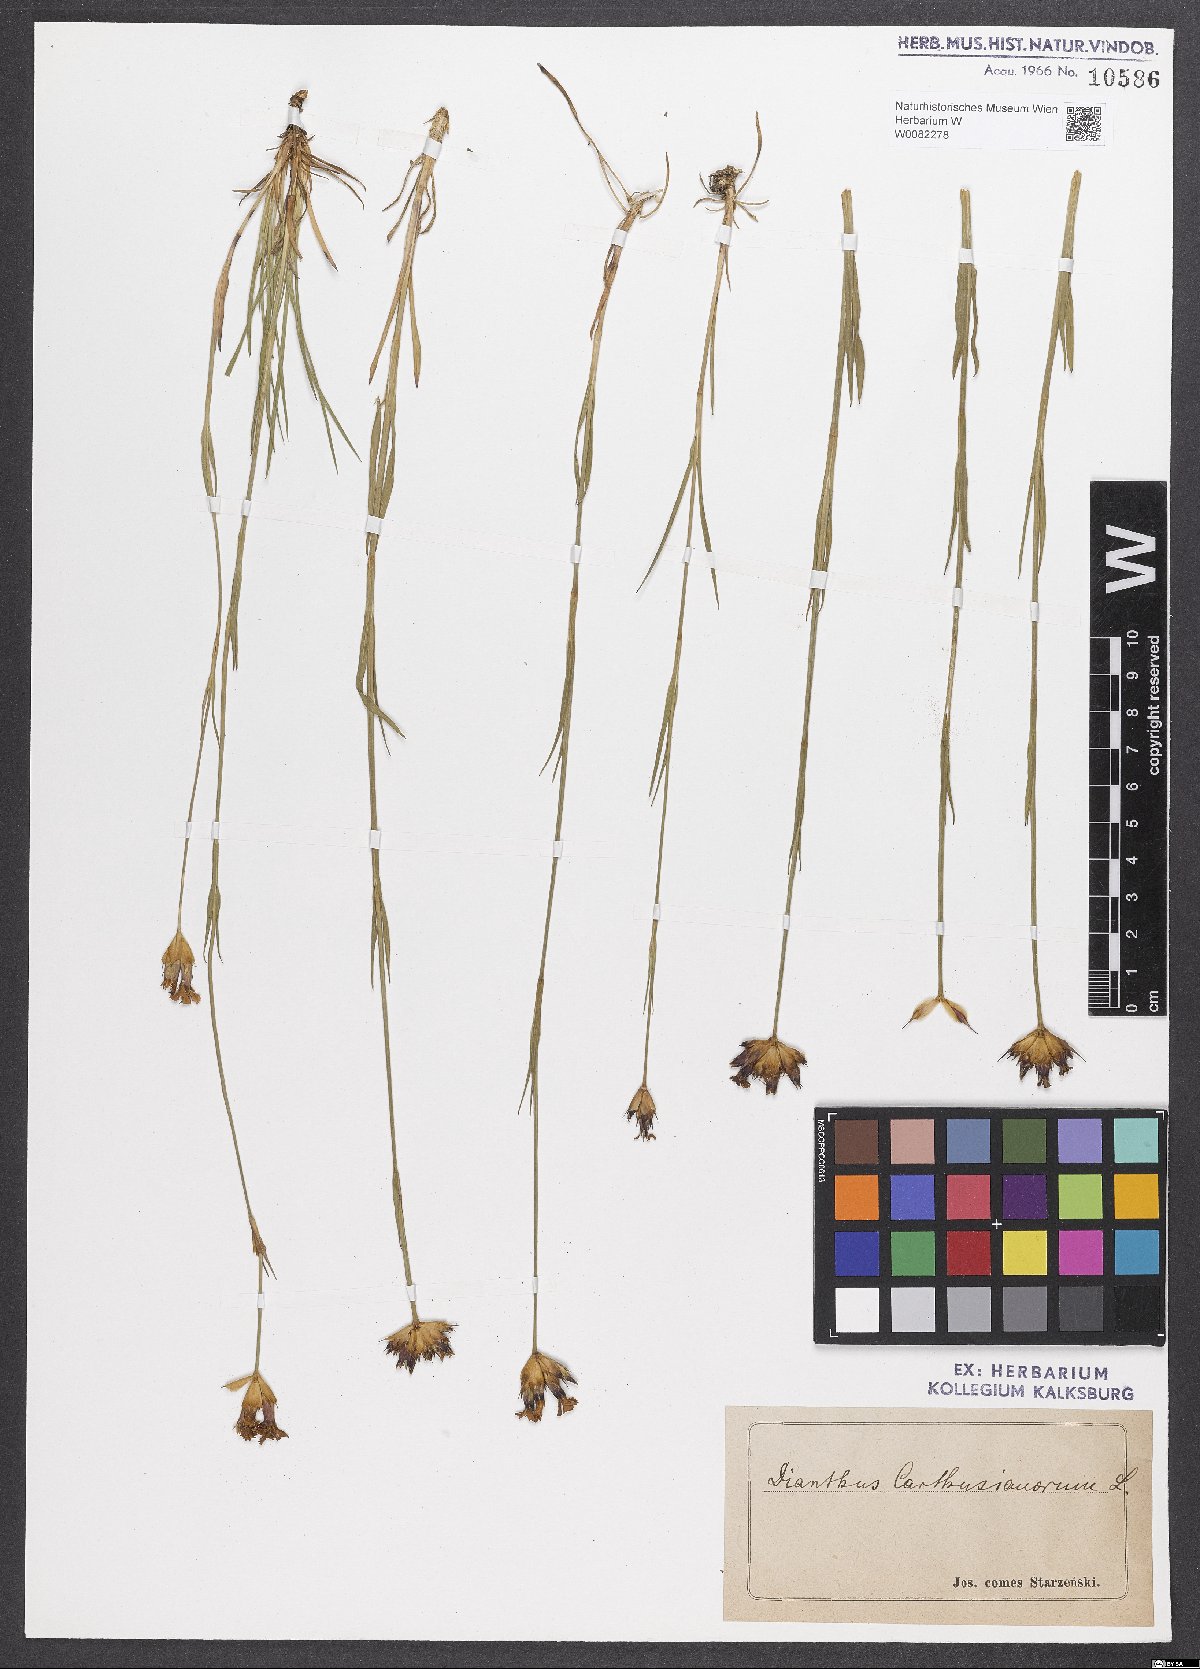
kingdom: Plantae
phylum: Tracheophyta
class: Magnoliopsida
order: Caryophyllales
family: Caryophyllaceae
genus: Dianthus
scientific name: Dianthus carthusianorum
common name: Carthusian pink
